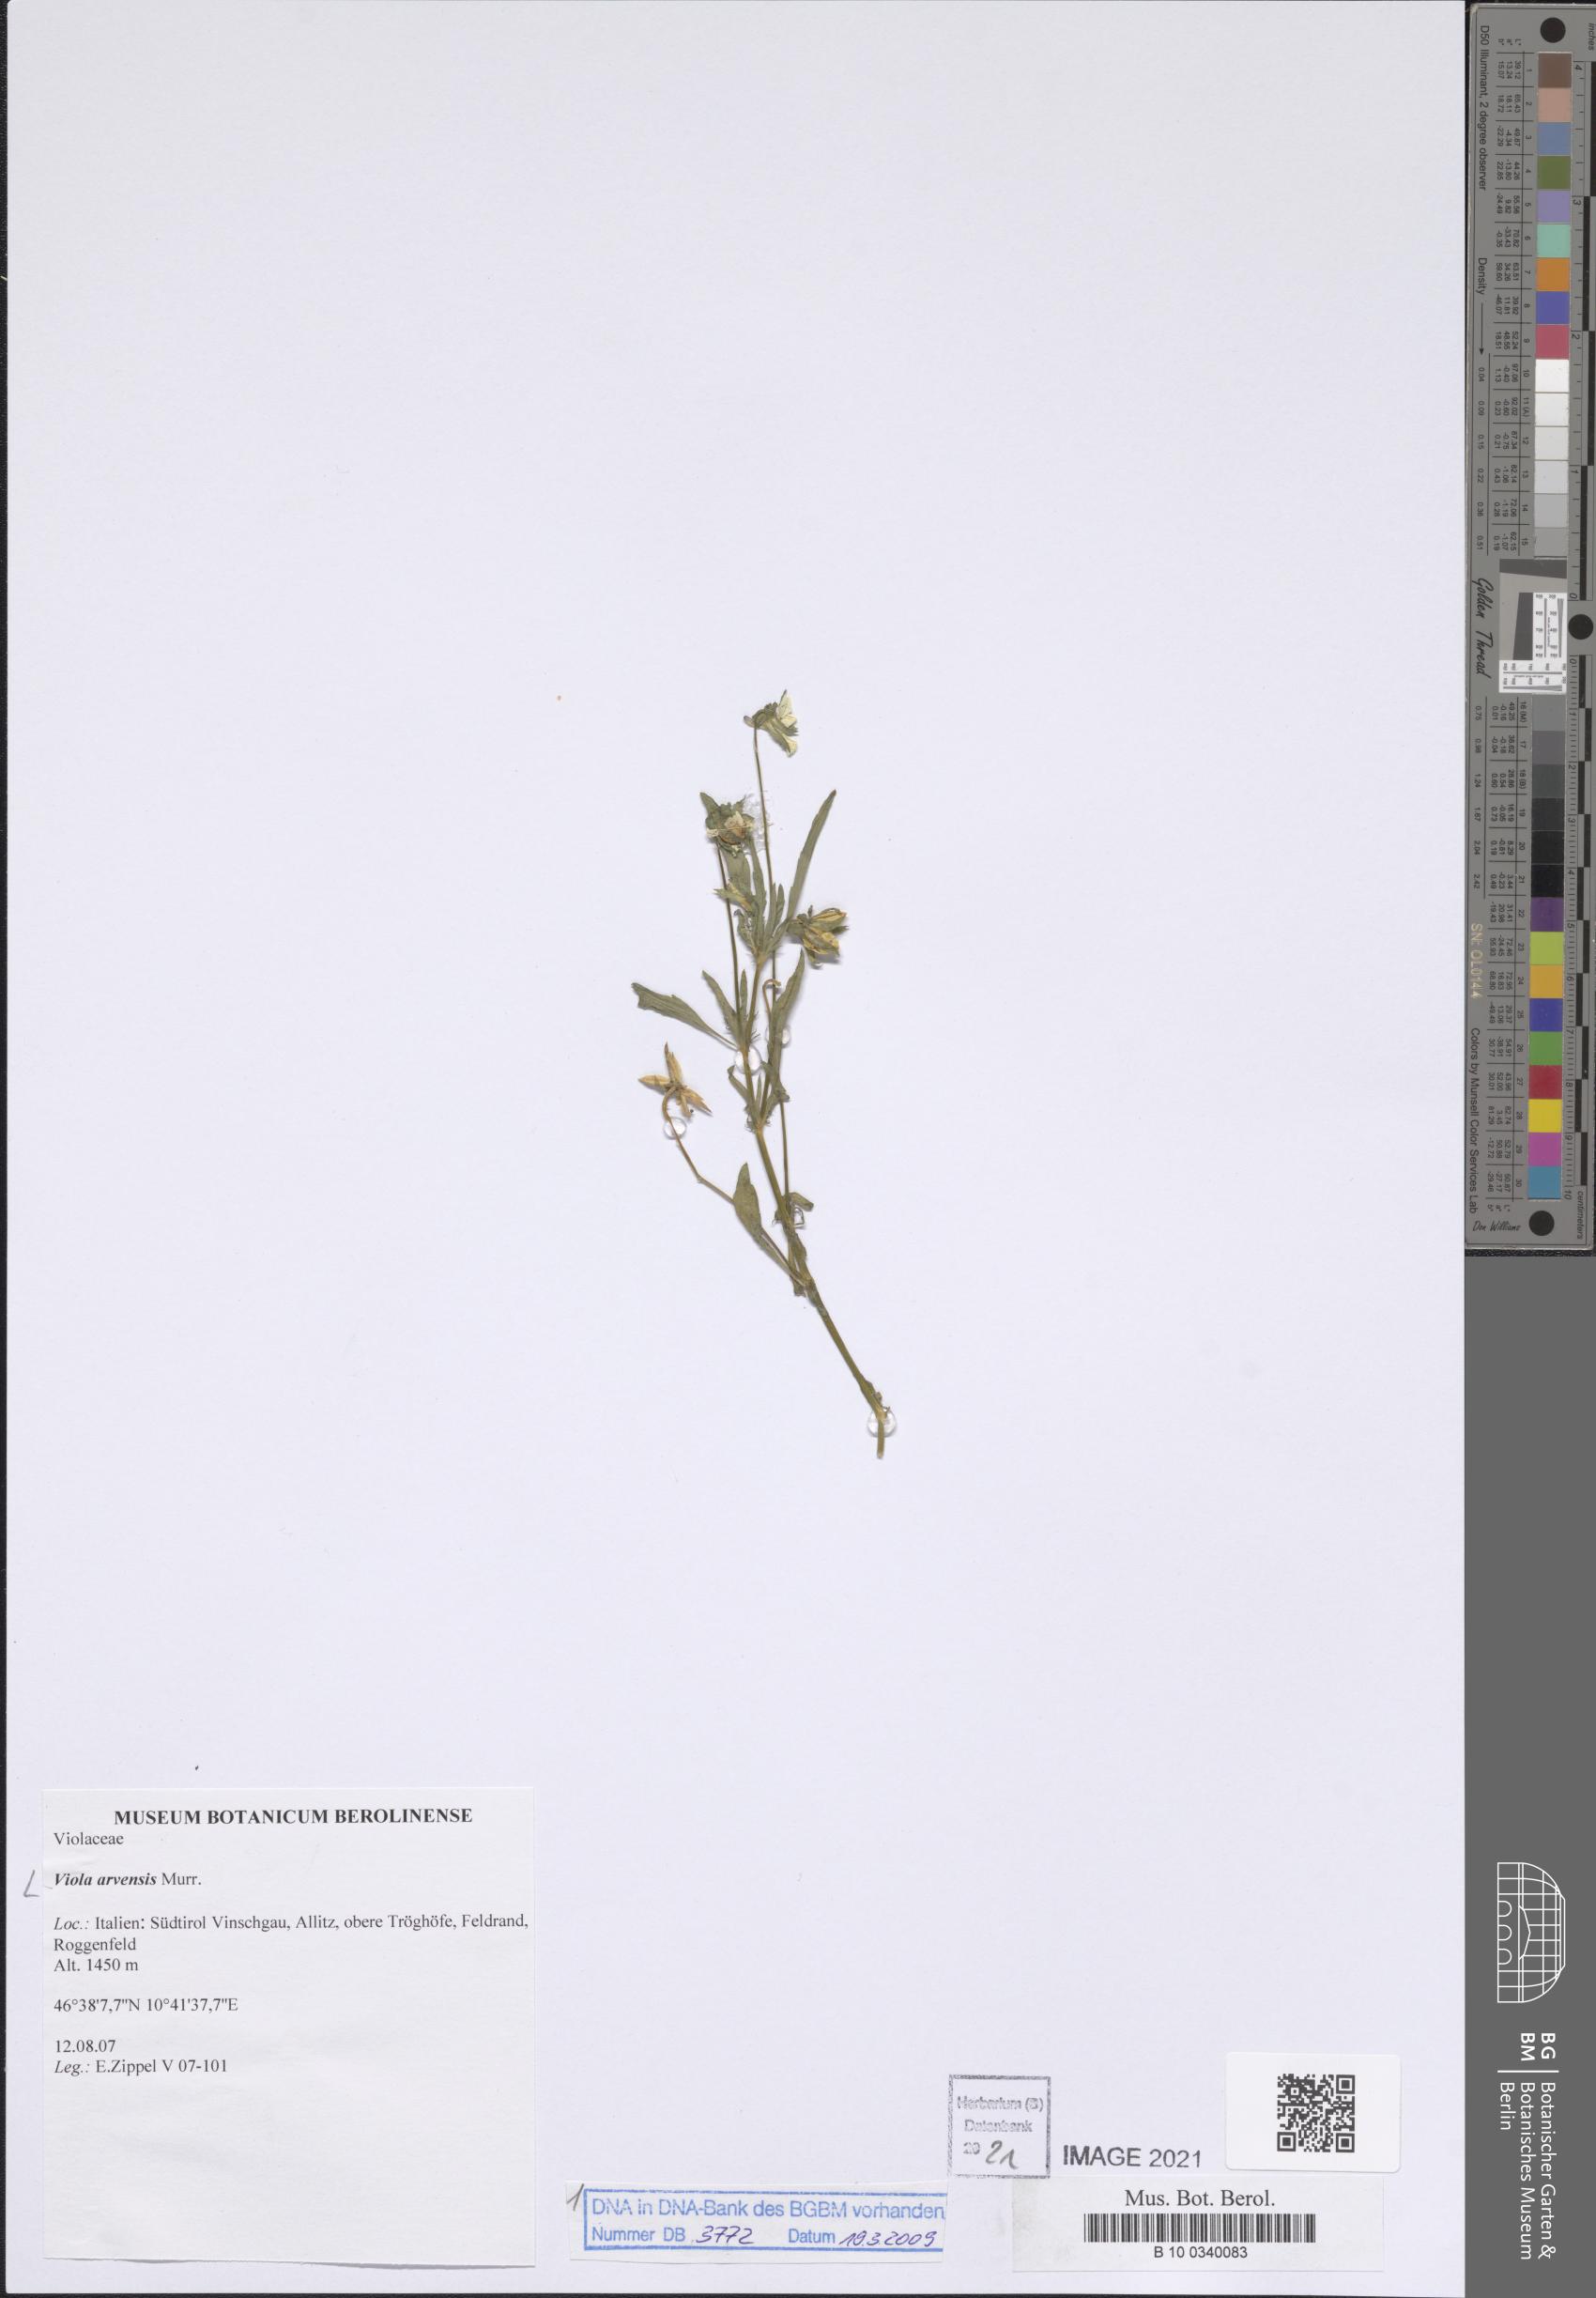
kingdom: Plantae
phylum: Tracheophyta
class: Magnoliopsida
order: Malpighiales
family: Violaceae
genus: Viola
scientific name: Viola arvensis
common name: Field pansy
